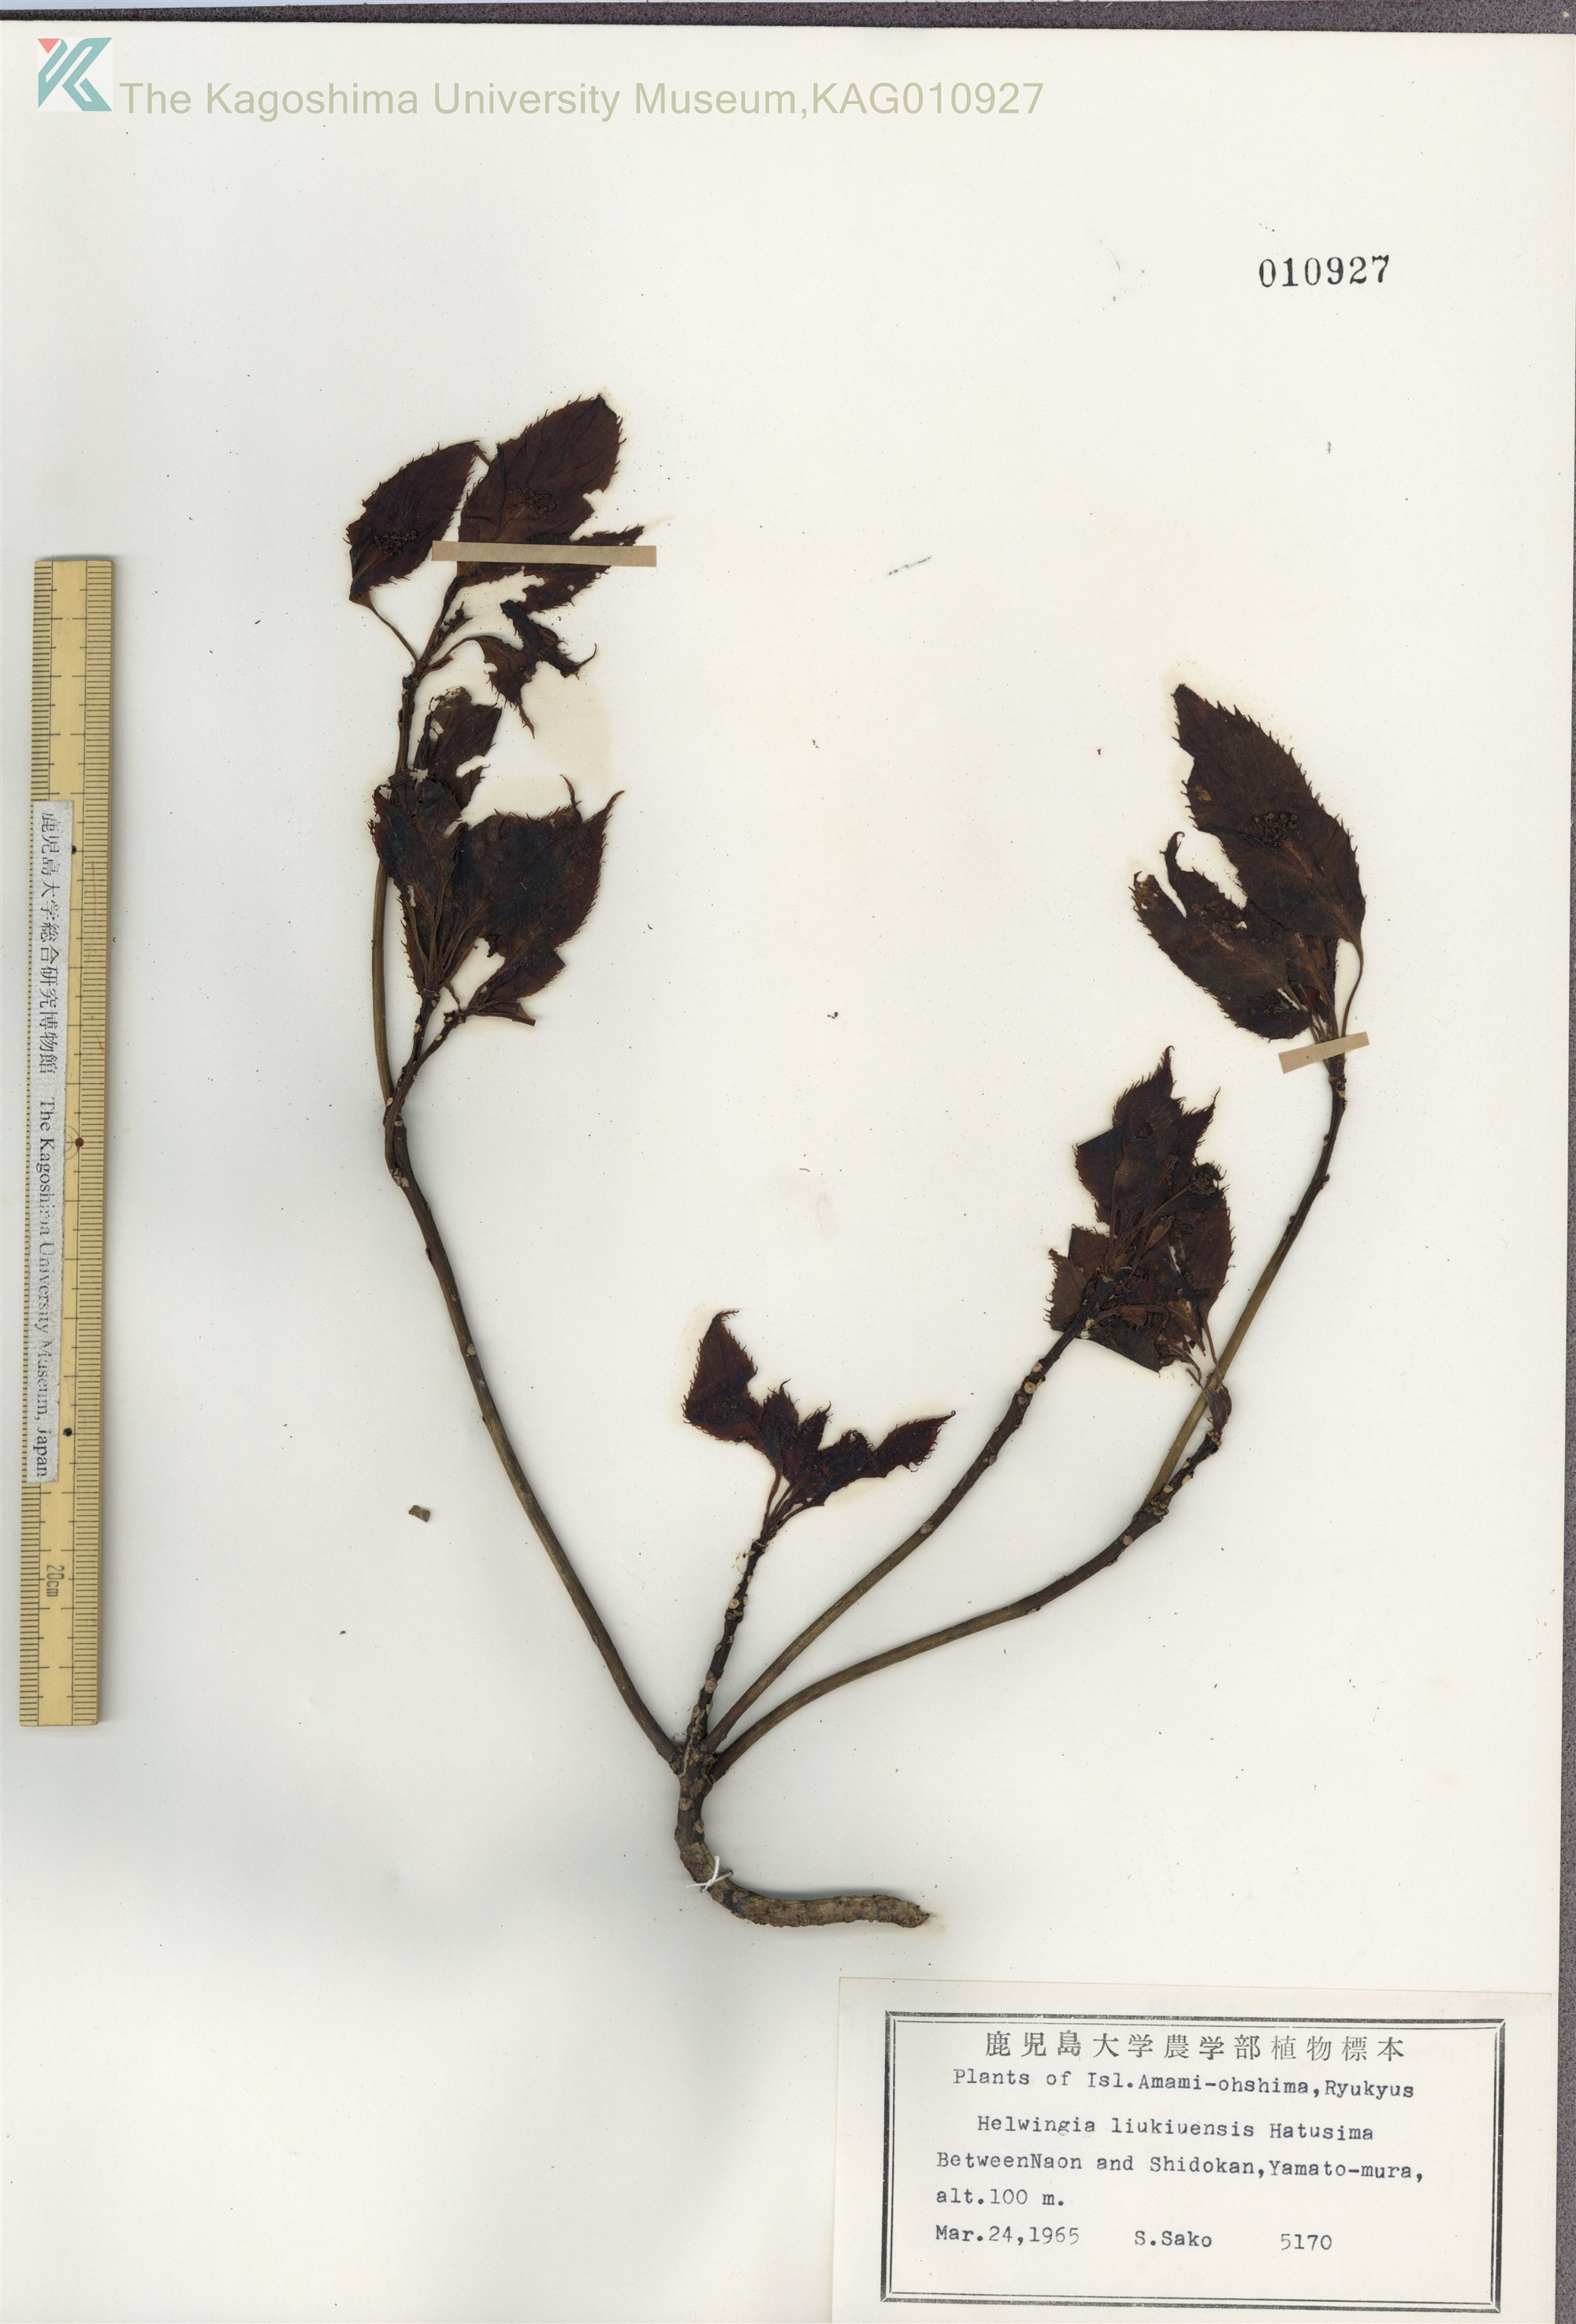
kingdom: Plantae
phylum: Tracheophyta
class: Magnoliopsida
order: Aquifoliales
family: Helwingiaceae
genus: Helwingia
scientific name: Helwingia japonica
